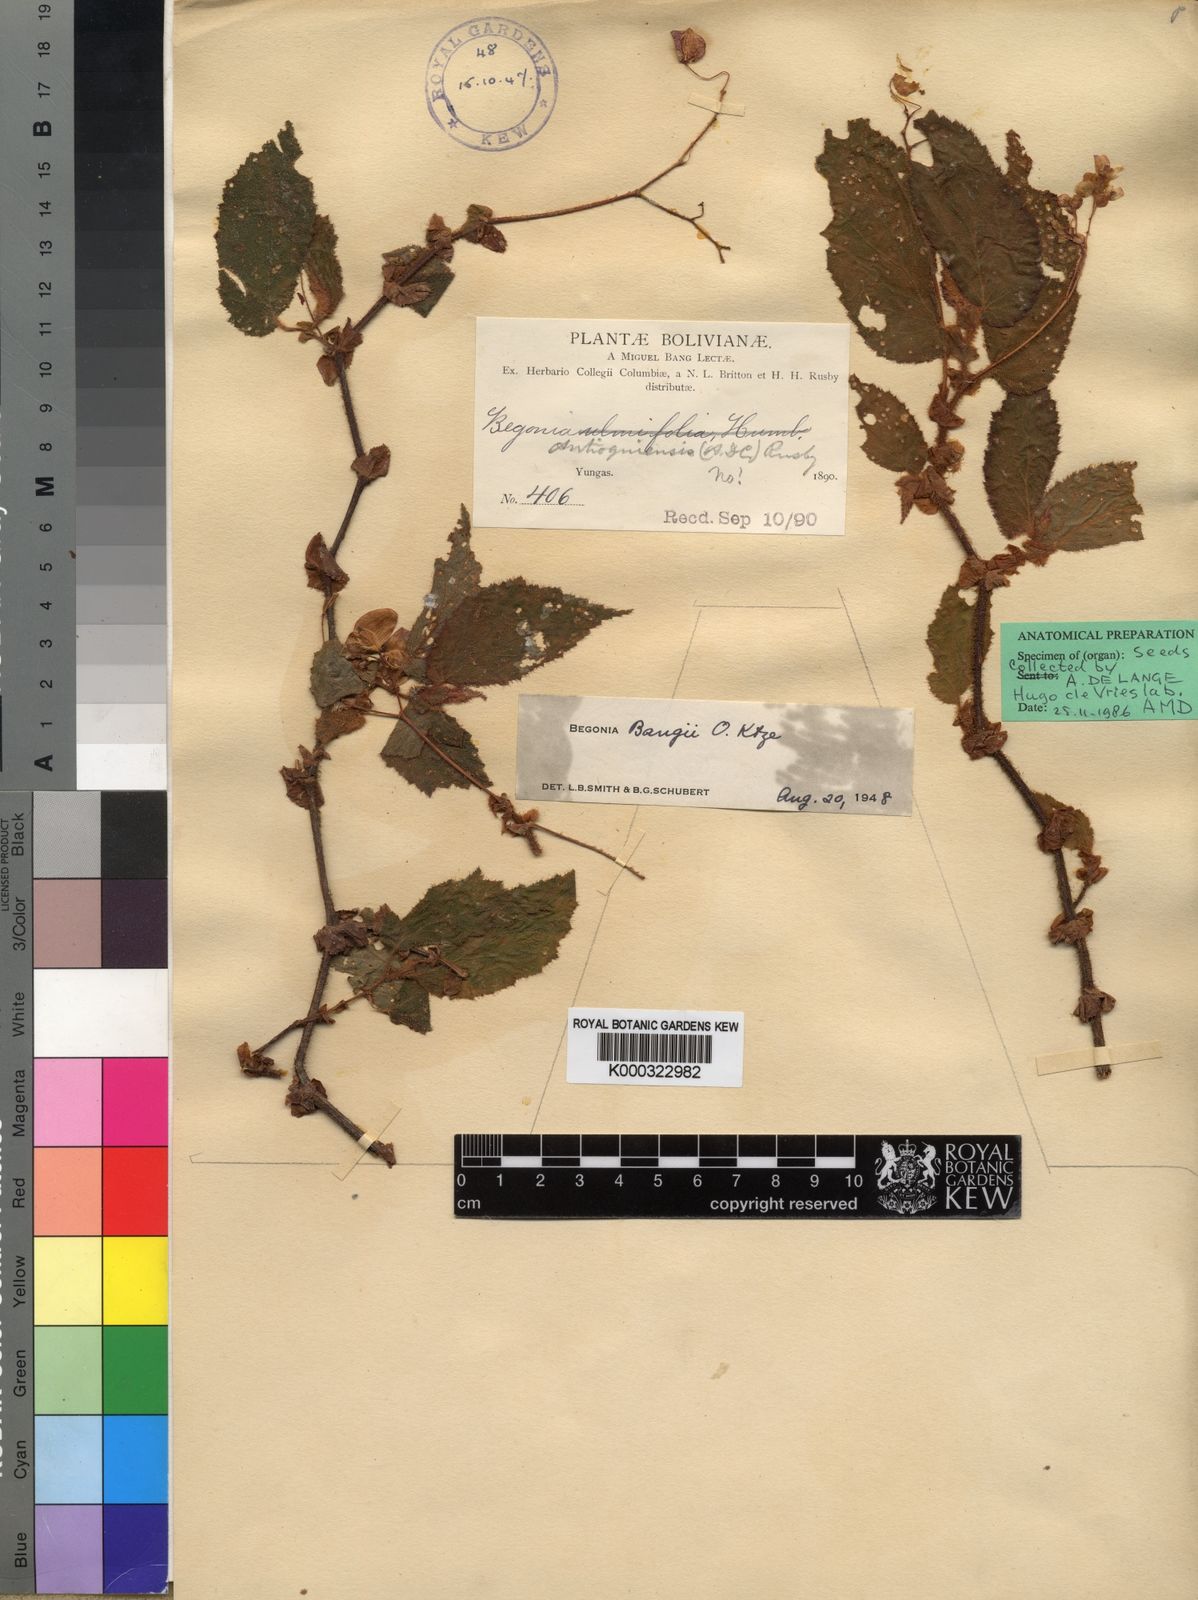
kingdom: Plantae
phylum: Tracheophyta
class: Magnoliopsida
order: Cucurbitales
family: Begoniaceae
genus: Begonia
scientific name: Begonia bangii
